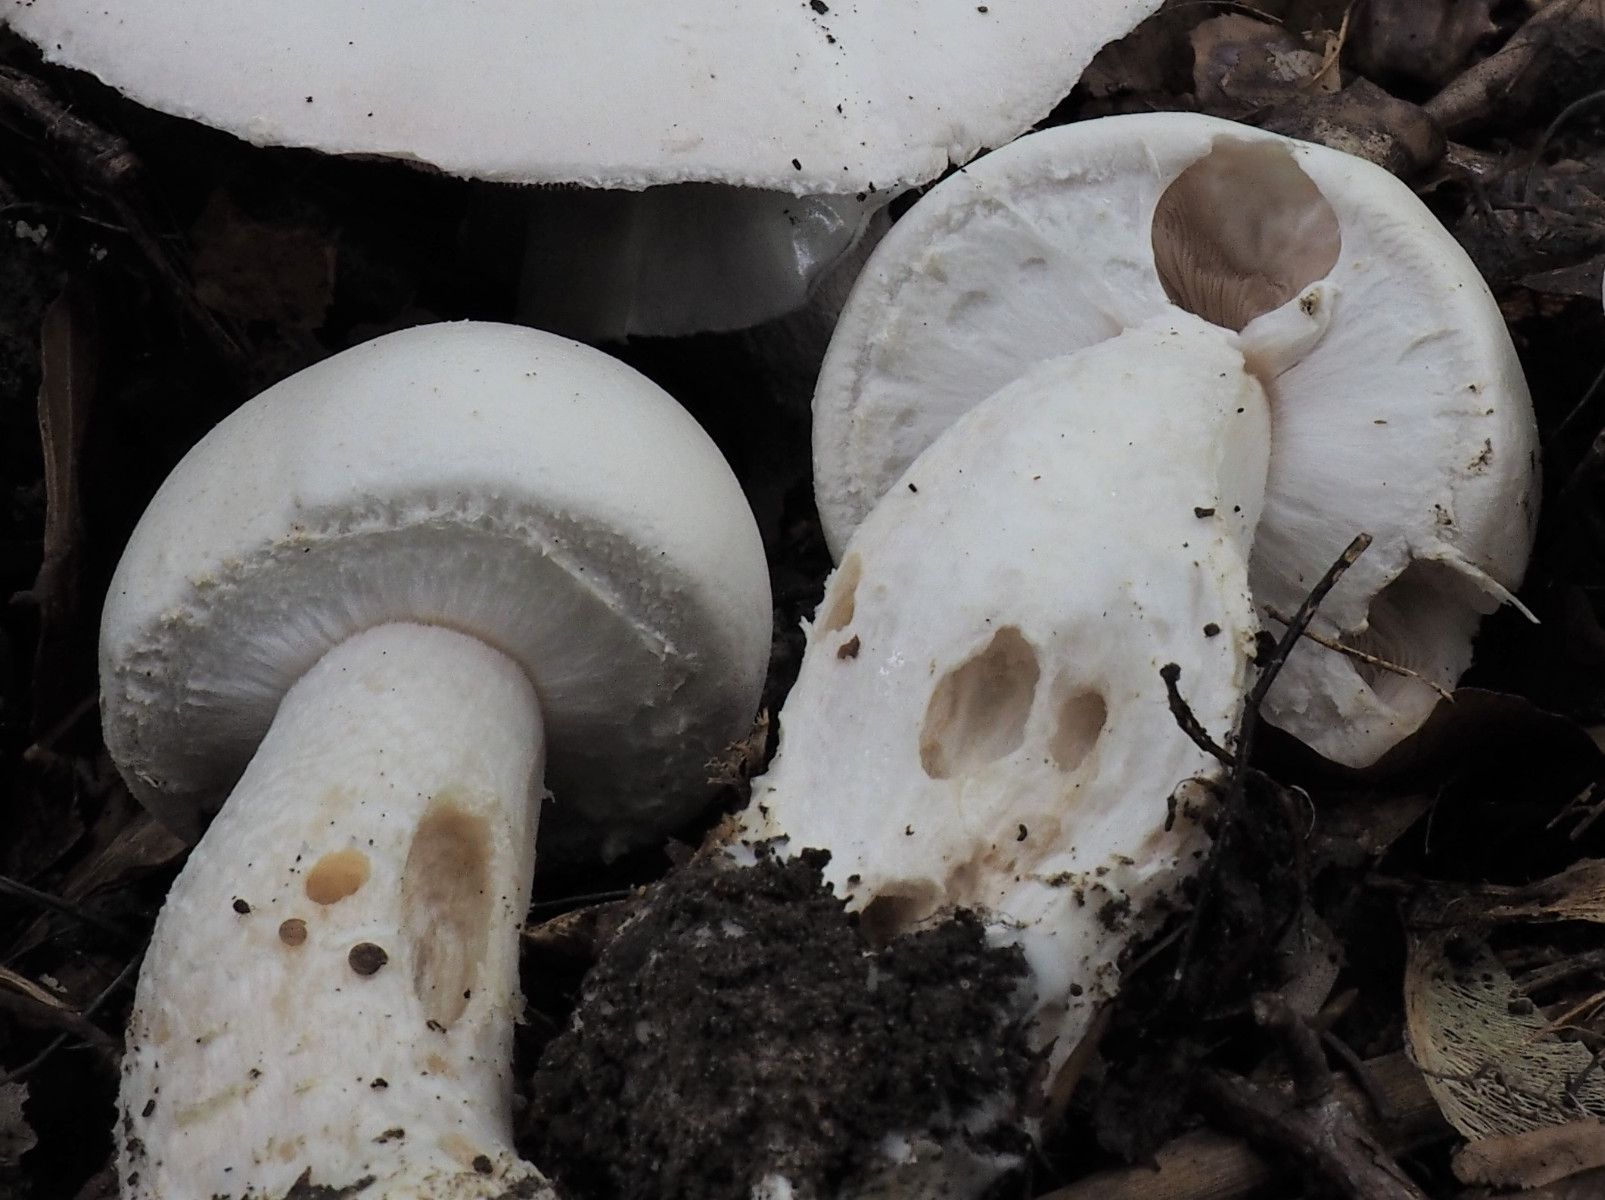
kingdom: Fungi
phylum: Basidiomycota
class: Agaricomycetes
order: Agaricales
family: Agaricaceae
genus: Agaricus
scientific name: Agaricus
